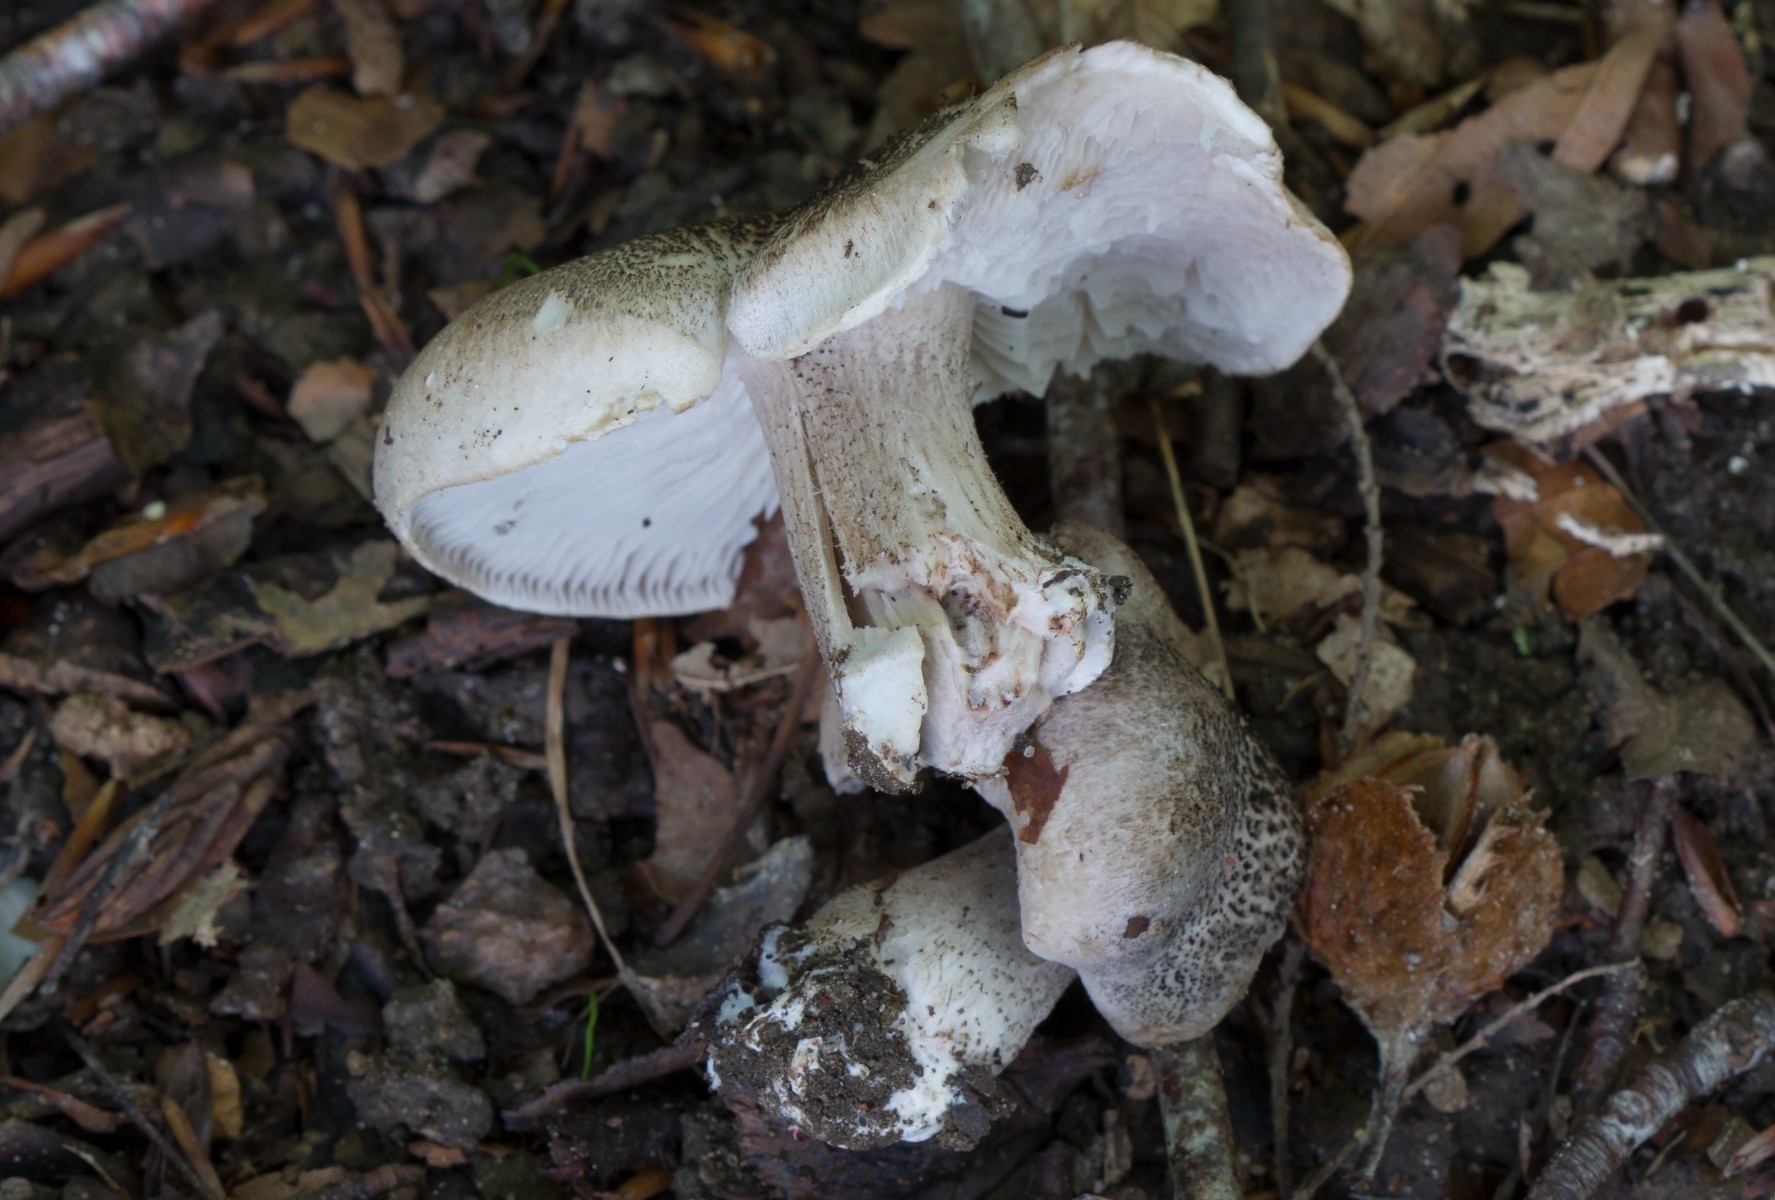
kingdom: Fungi
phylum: Basidiomycota
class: Agaricomycetes
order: Agaricales
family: Tricholomataceae
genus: Tricholoma
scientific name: Tricholoma
